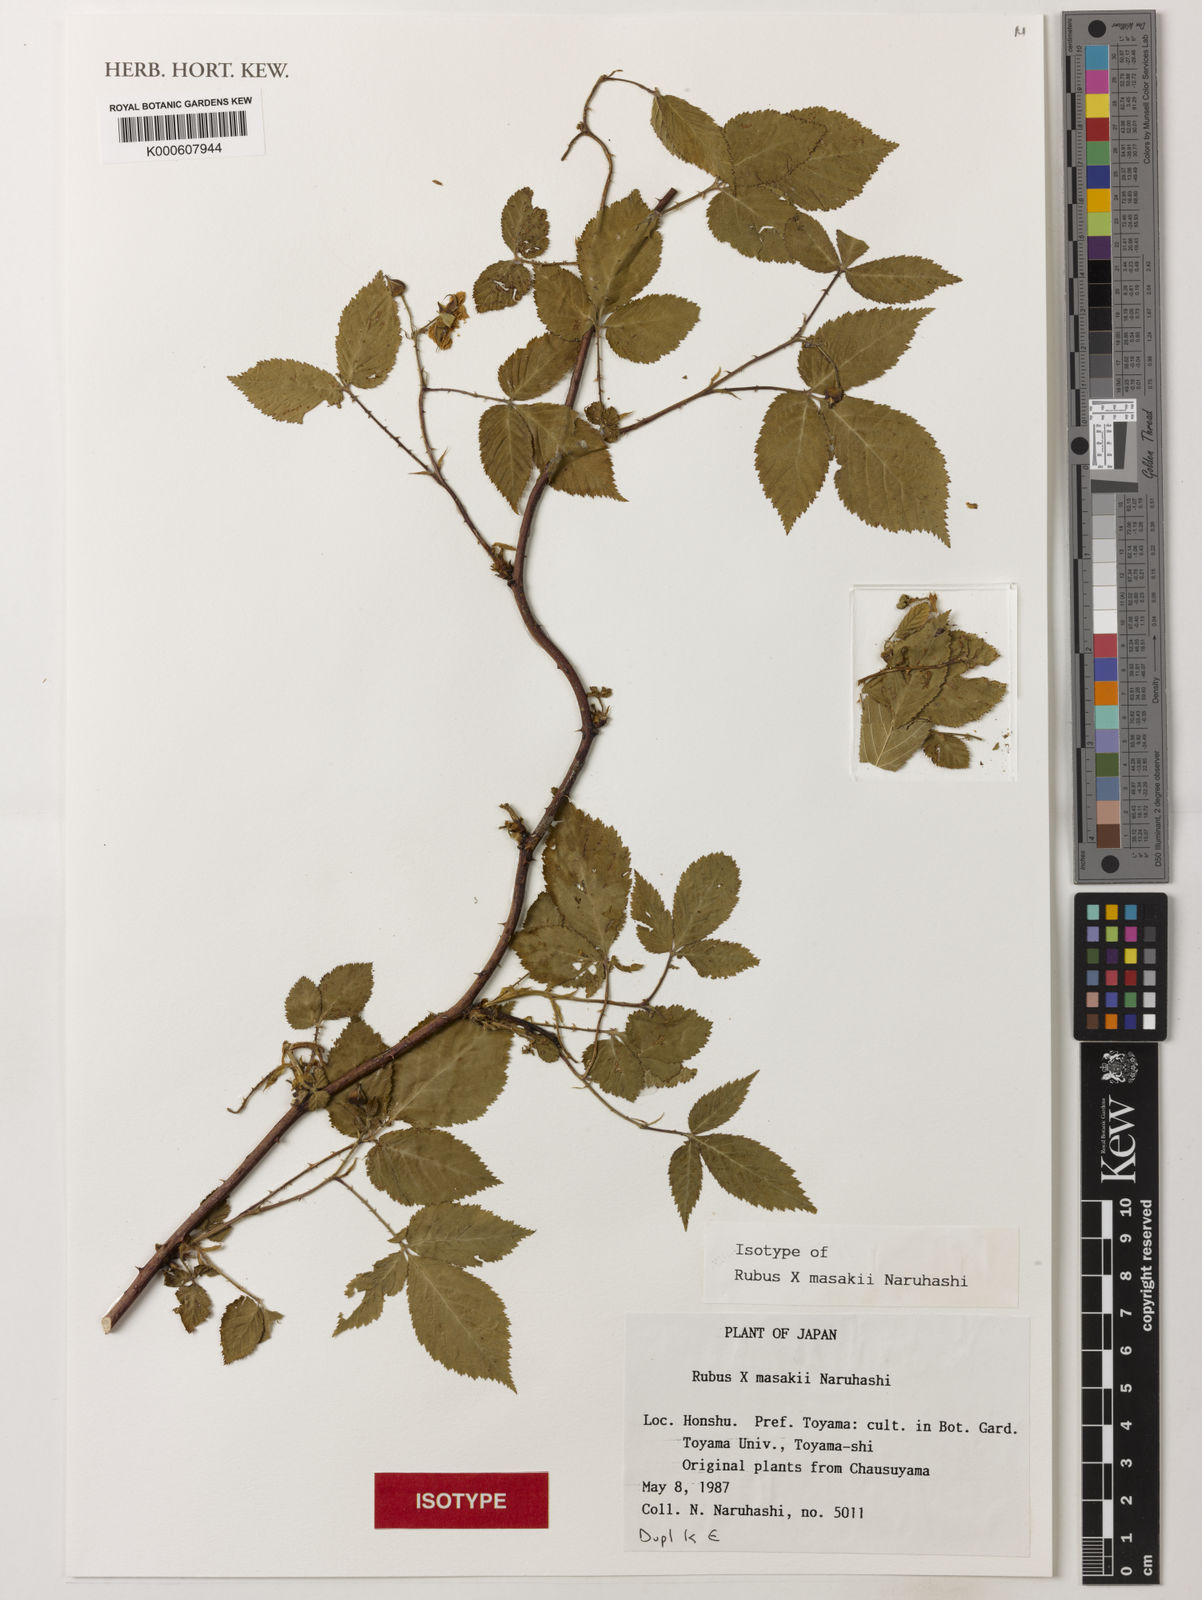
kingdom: Plantae
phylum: Tracheophyta
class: Magnoliopsida
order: Rosales
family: Rosaceae
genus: Rubus
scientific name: Rubus masakii
